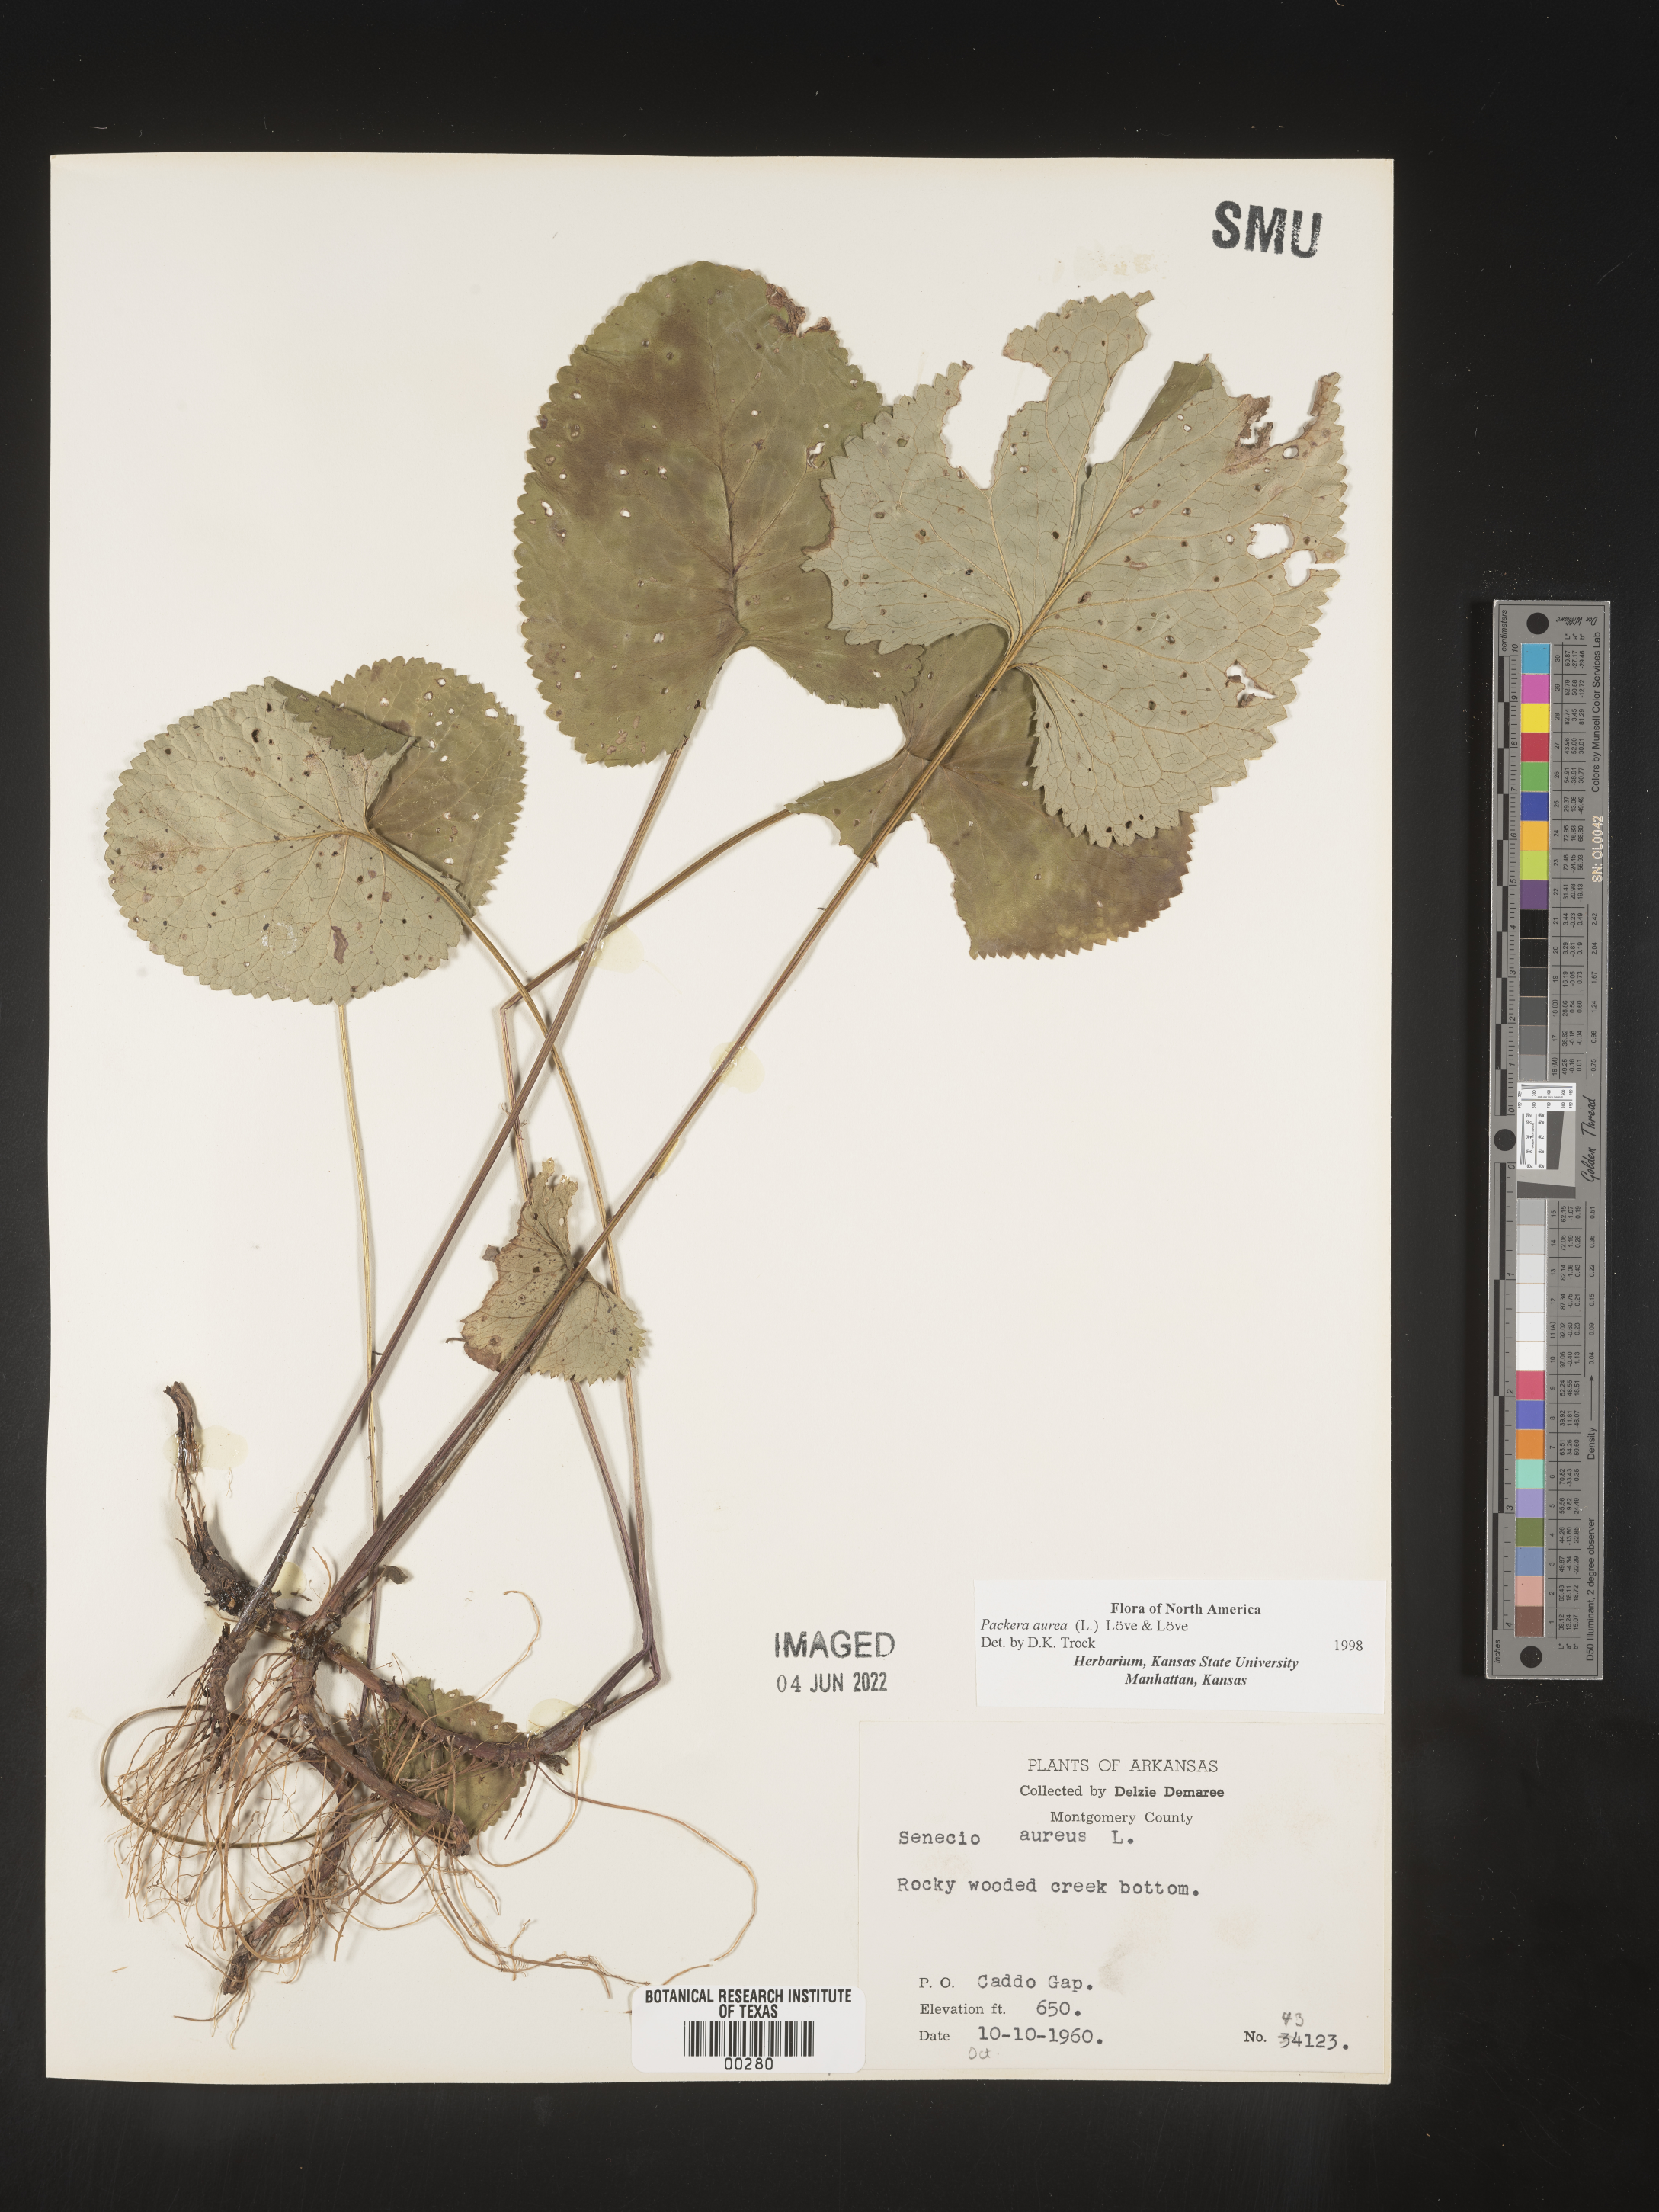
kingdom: Plantae
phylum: Tracheophyta
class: Magnoliopsida
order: Asterales
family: Asteraceae
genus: Packera
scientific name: Packera aurea
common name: Golden groundsel
